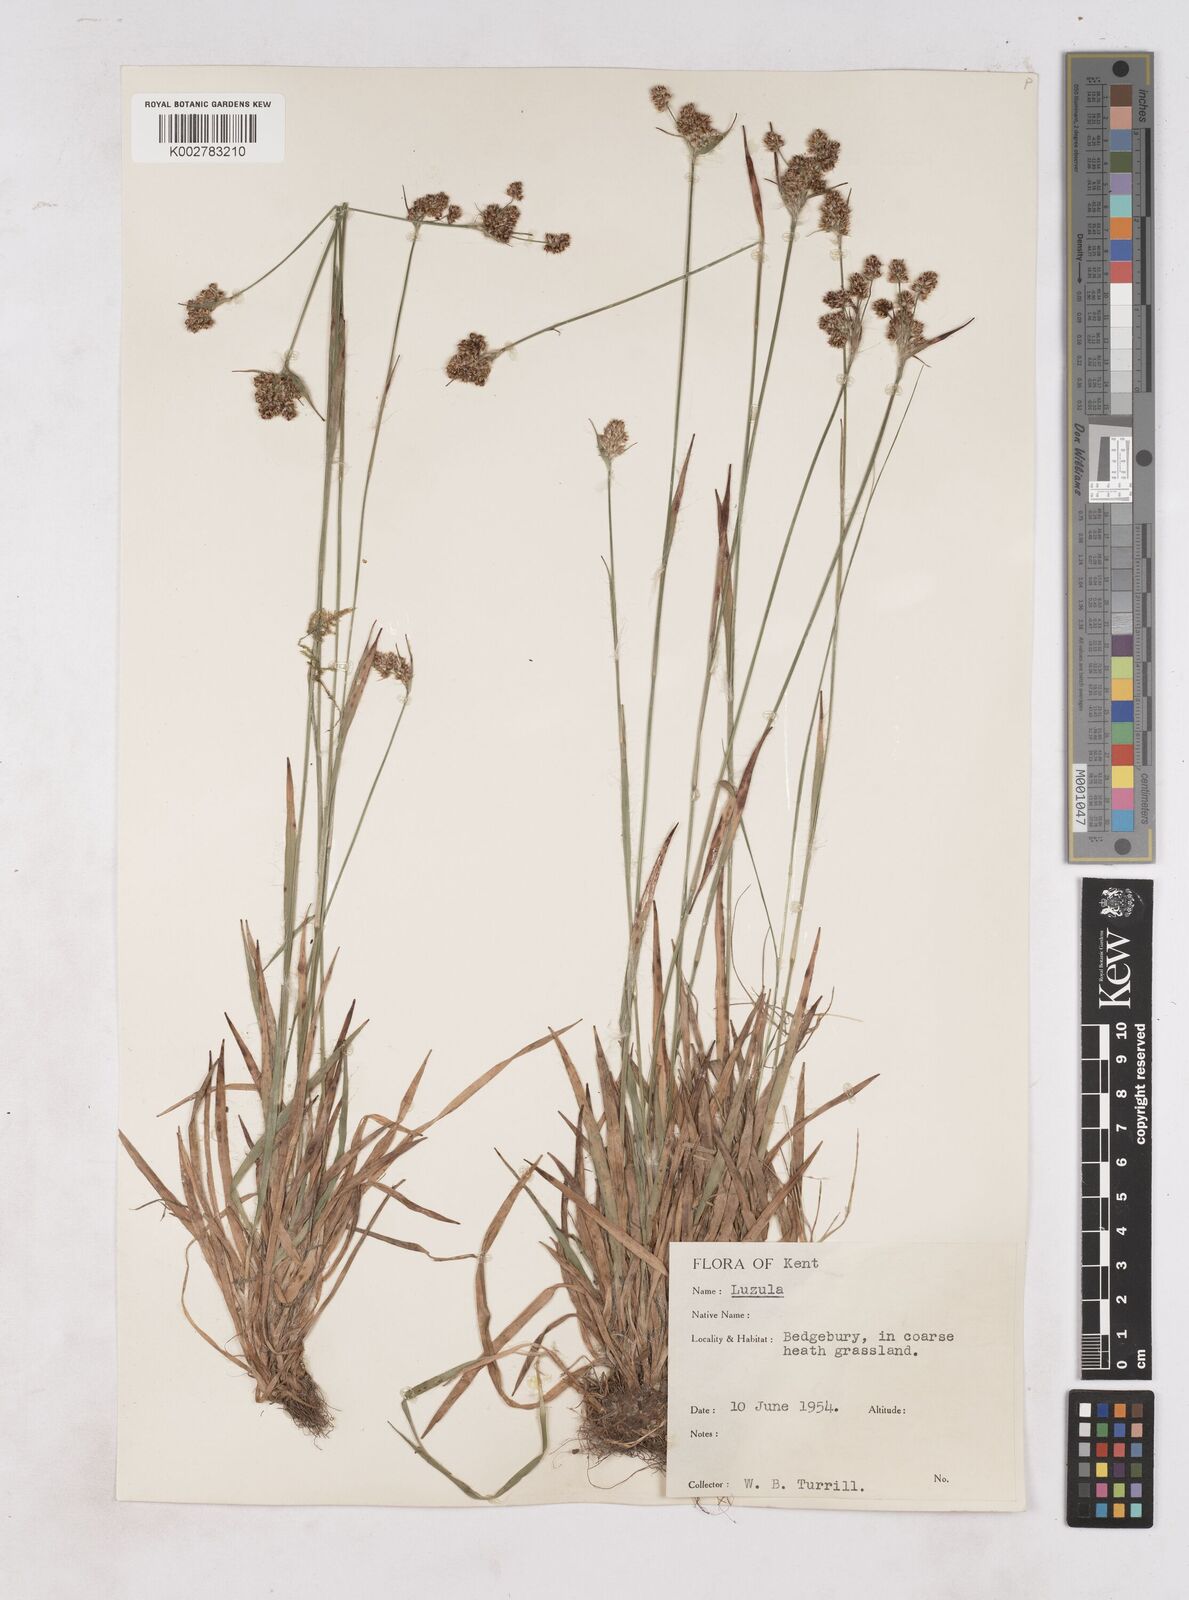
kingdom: Plantae
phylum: Tracheophyta
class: Liliopsida
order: Poales
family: Juncaceae
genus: Luzula
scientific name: Luzula multiflora
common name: Heath wood-rush
